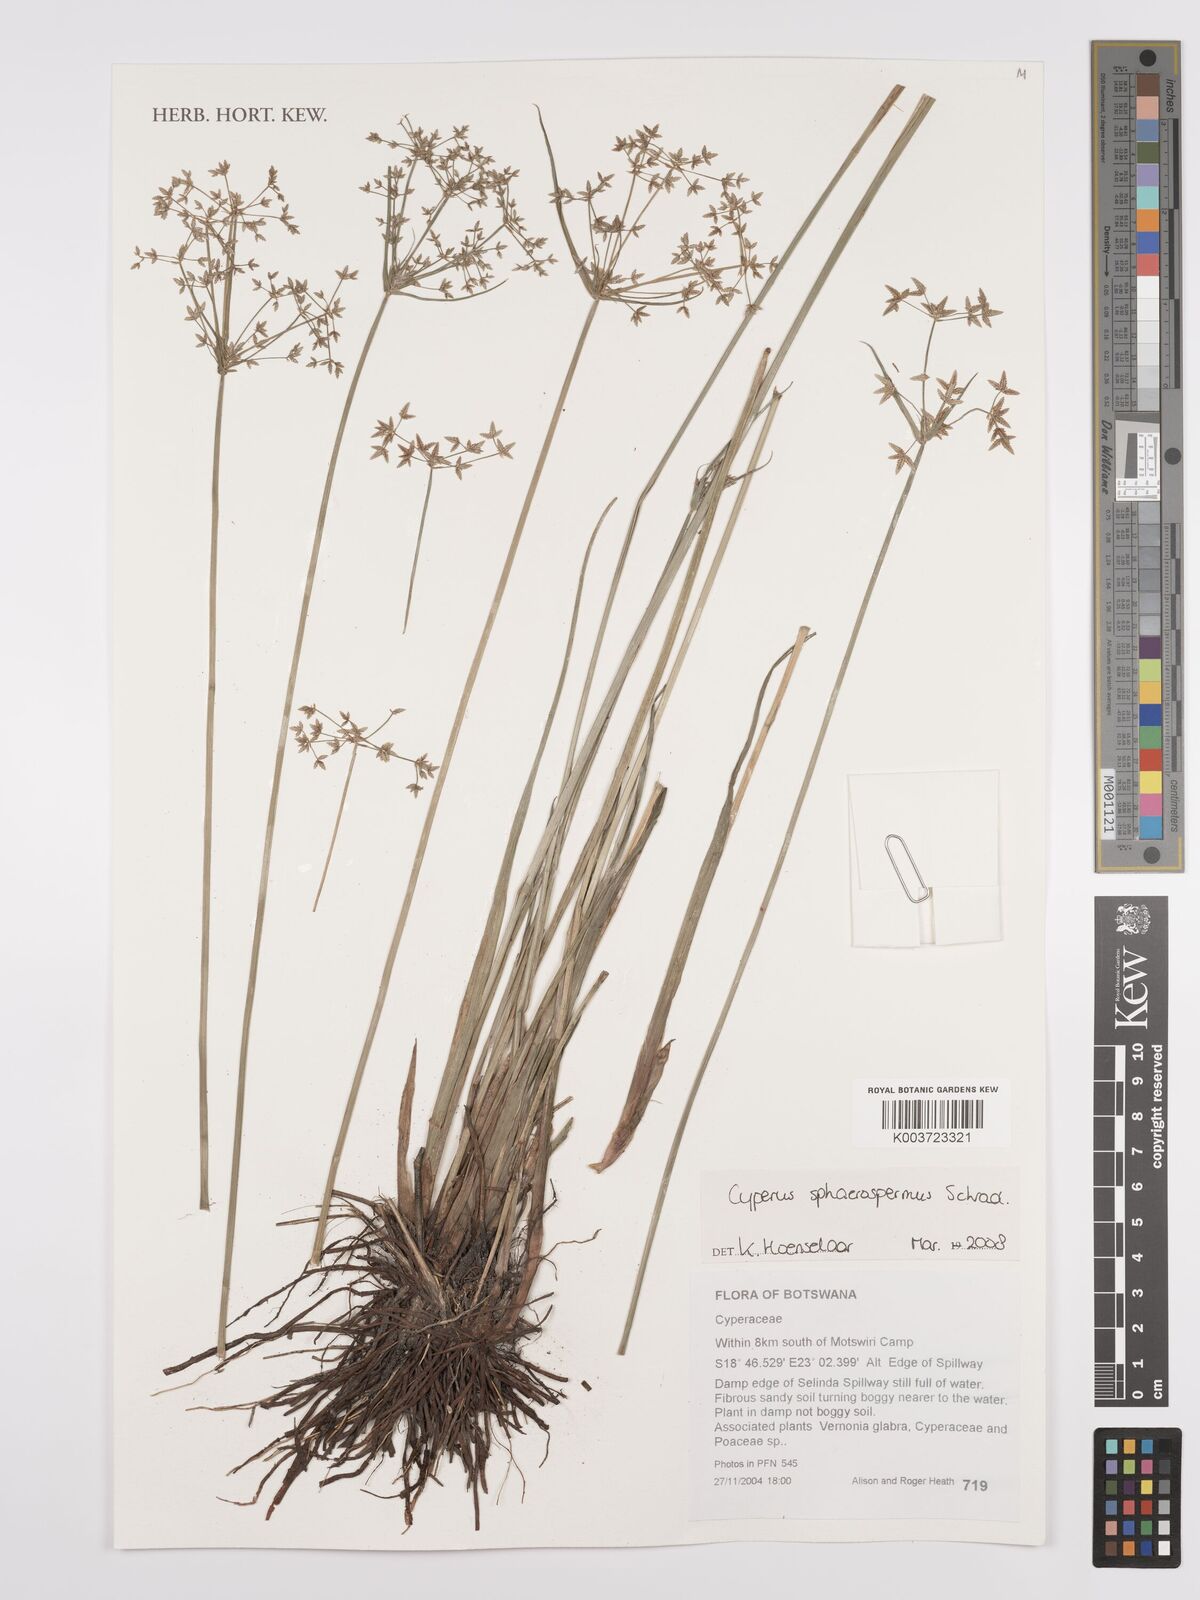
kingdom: Plantae
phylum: Tracheophyta
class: Liliopsida
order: Poales
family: Cyperaceae
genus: Cyperus
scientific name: Cyperus denudatus
